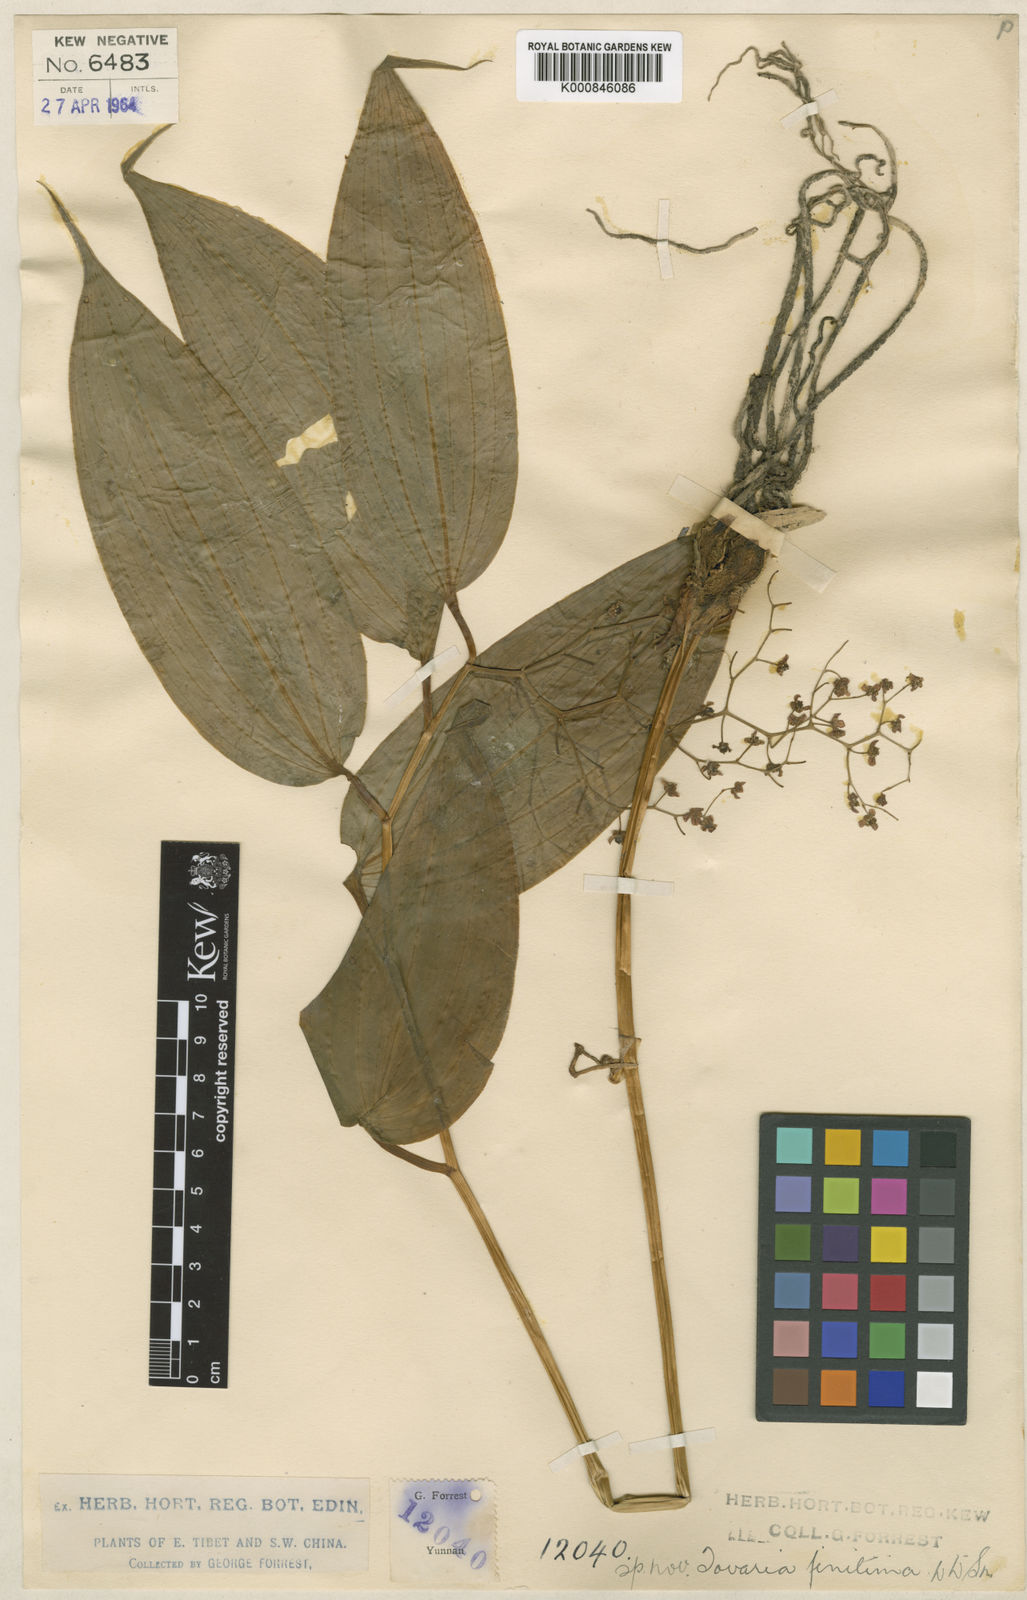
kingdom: Plantae
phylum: Tracheophyta
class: Liliopsida
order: Asparagales
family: Asparagaceae
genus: Maianthemum
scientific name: Maianthemum
